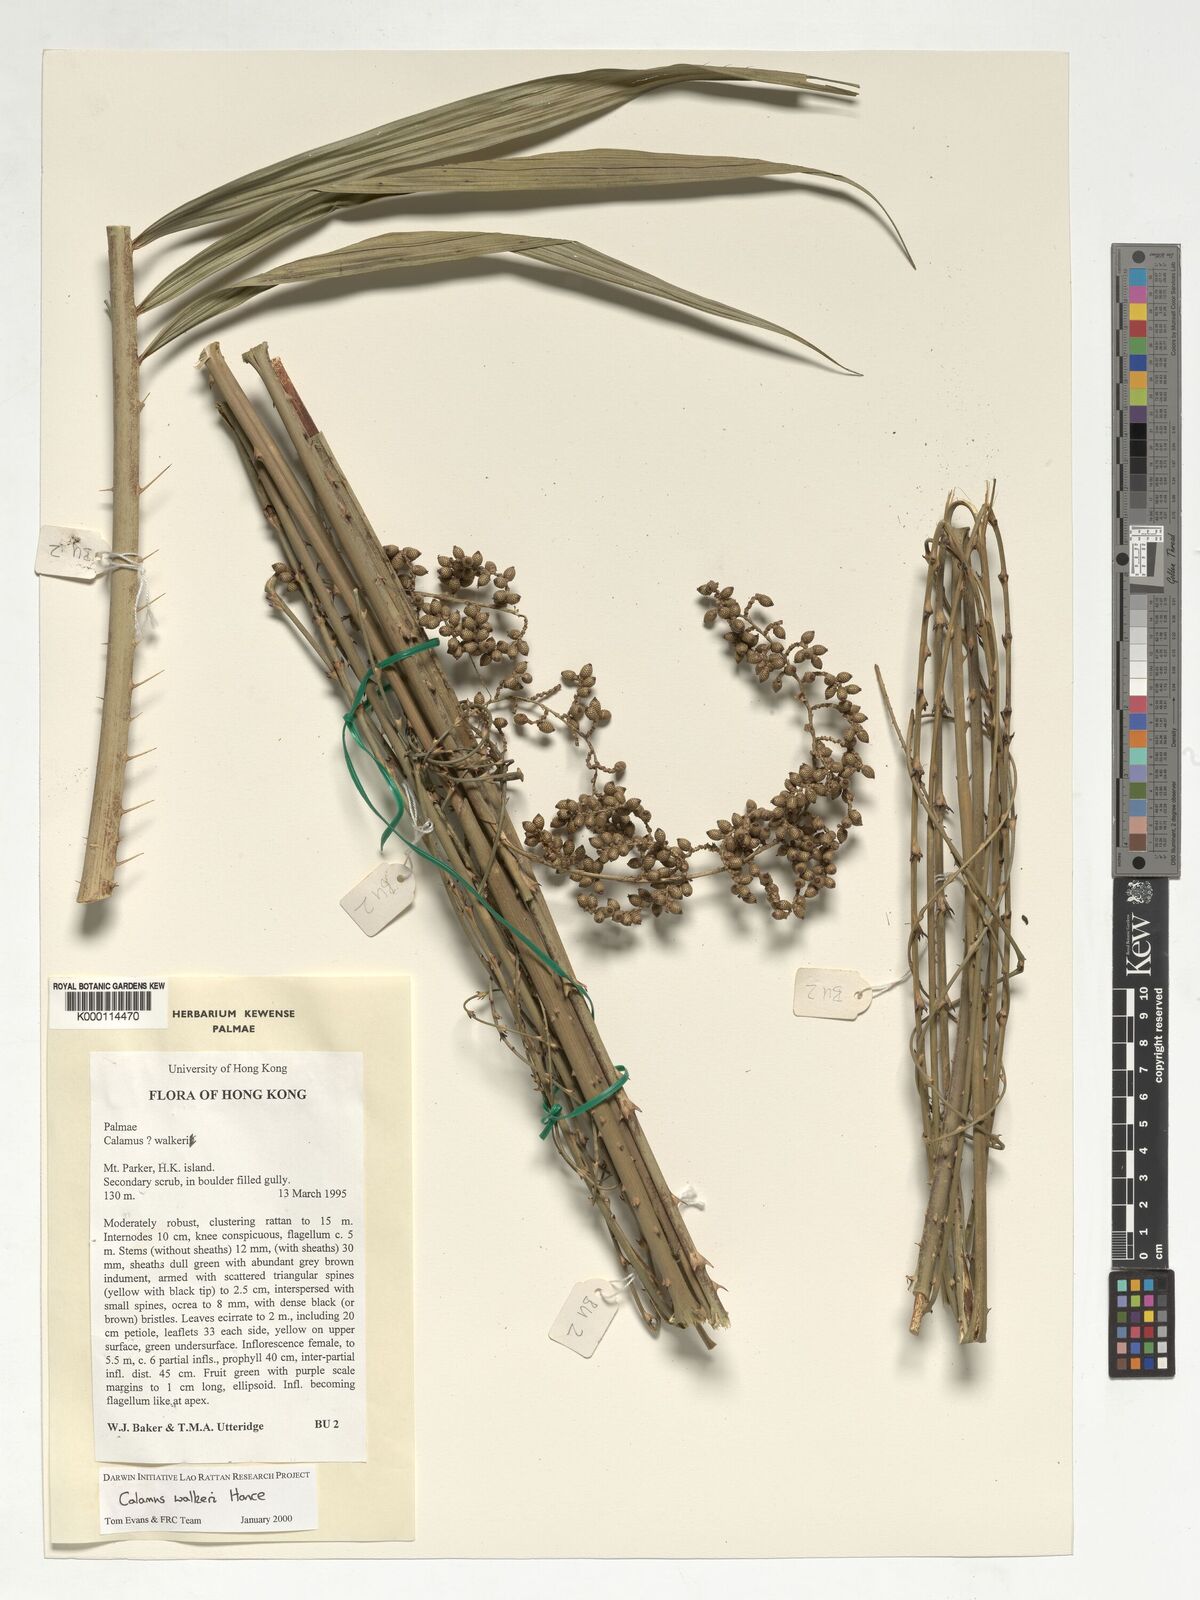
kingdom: Plantae
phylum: Tracheophyta
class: Liliopsida
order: Arecales
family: Arecaceae
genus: Calamus
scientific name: Calamus walkeri
